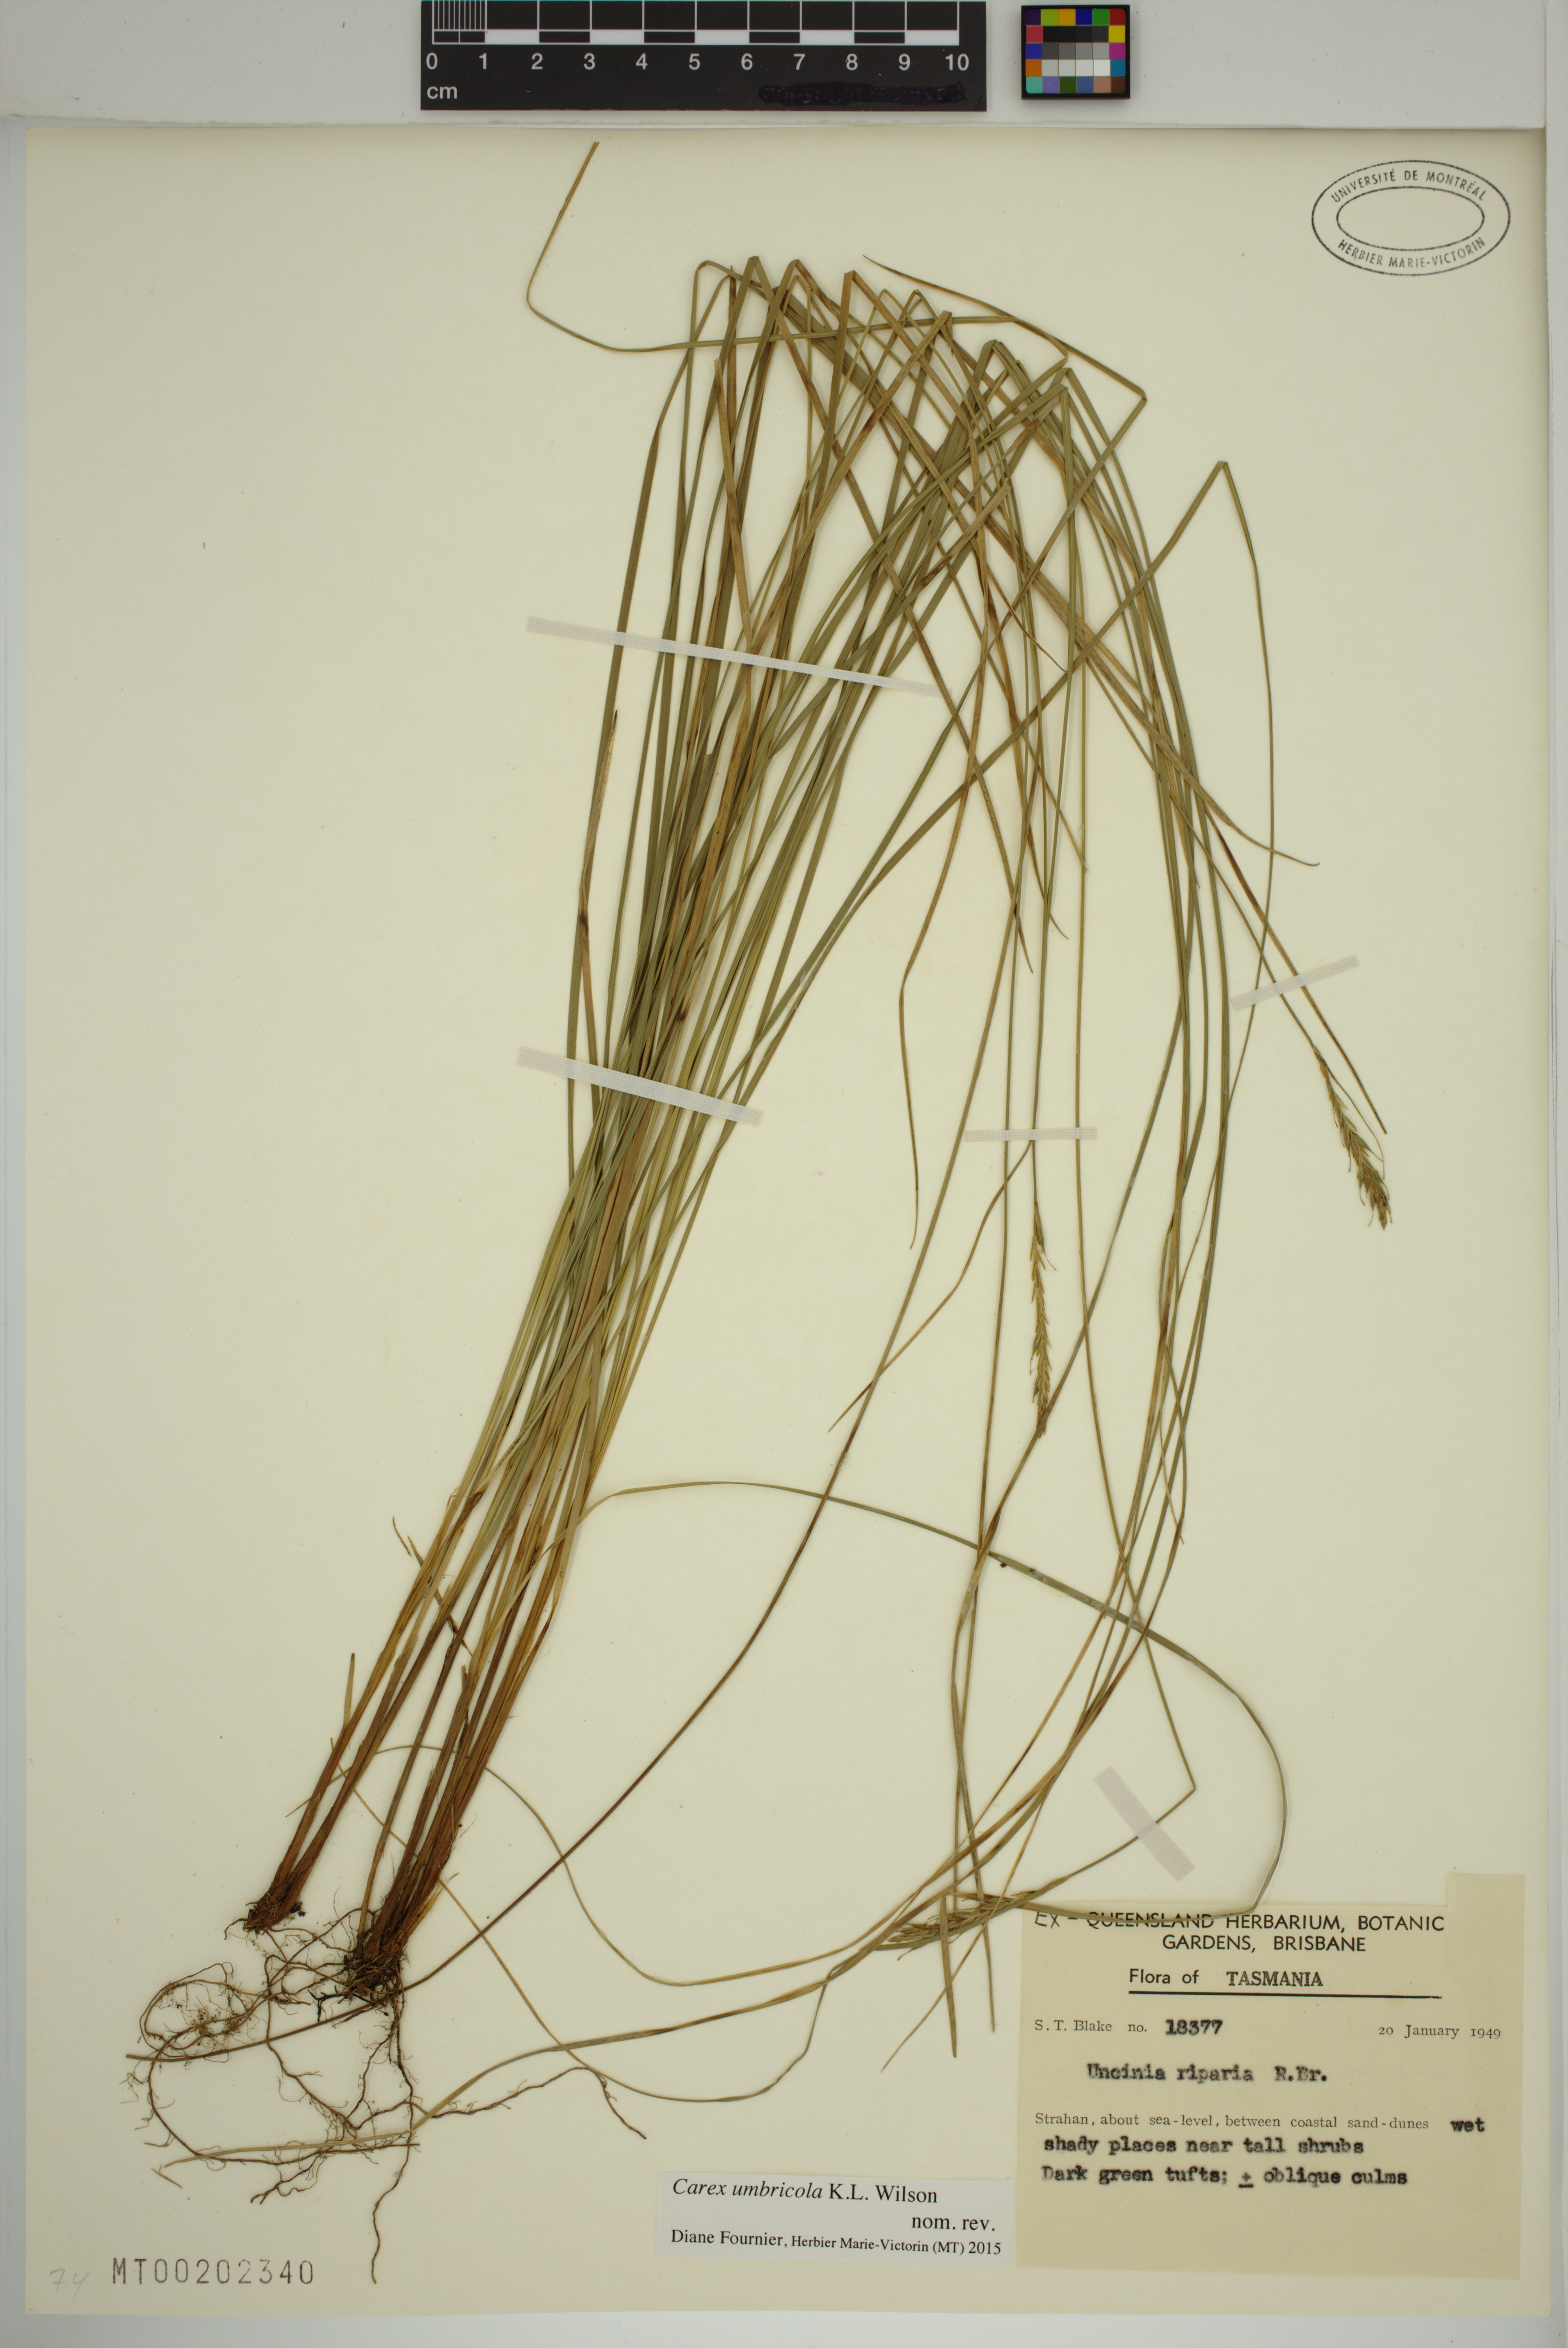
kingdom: Plantae
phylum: Tracheophyta
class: Liliopsida
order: Poales
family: Cyperaceae
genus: Carex
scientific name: Carex umbricola
